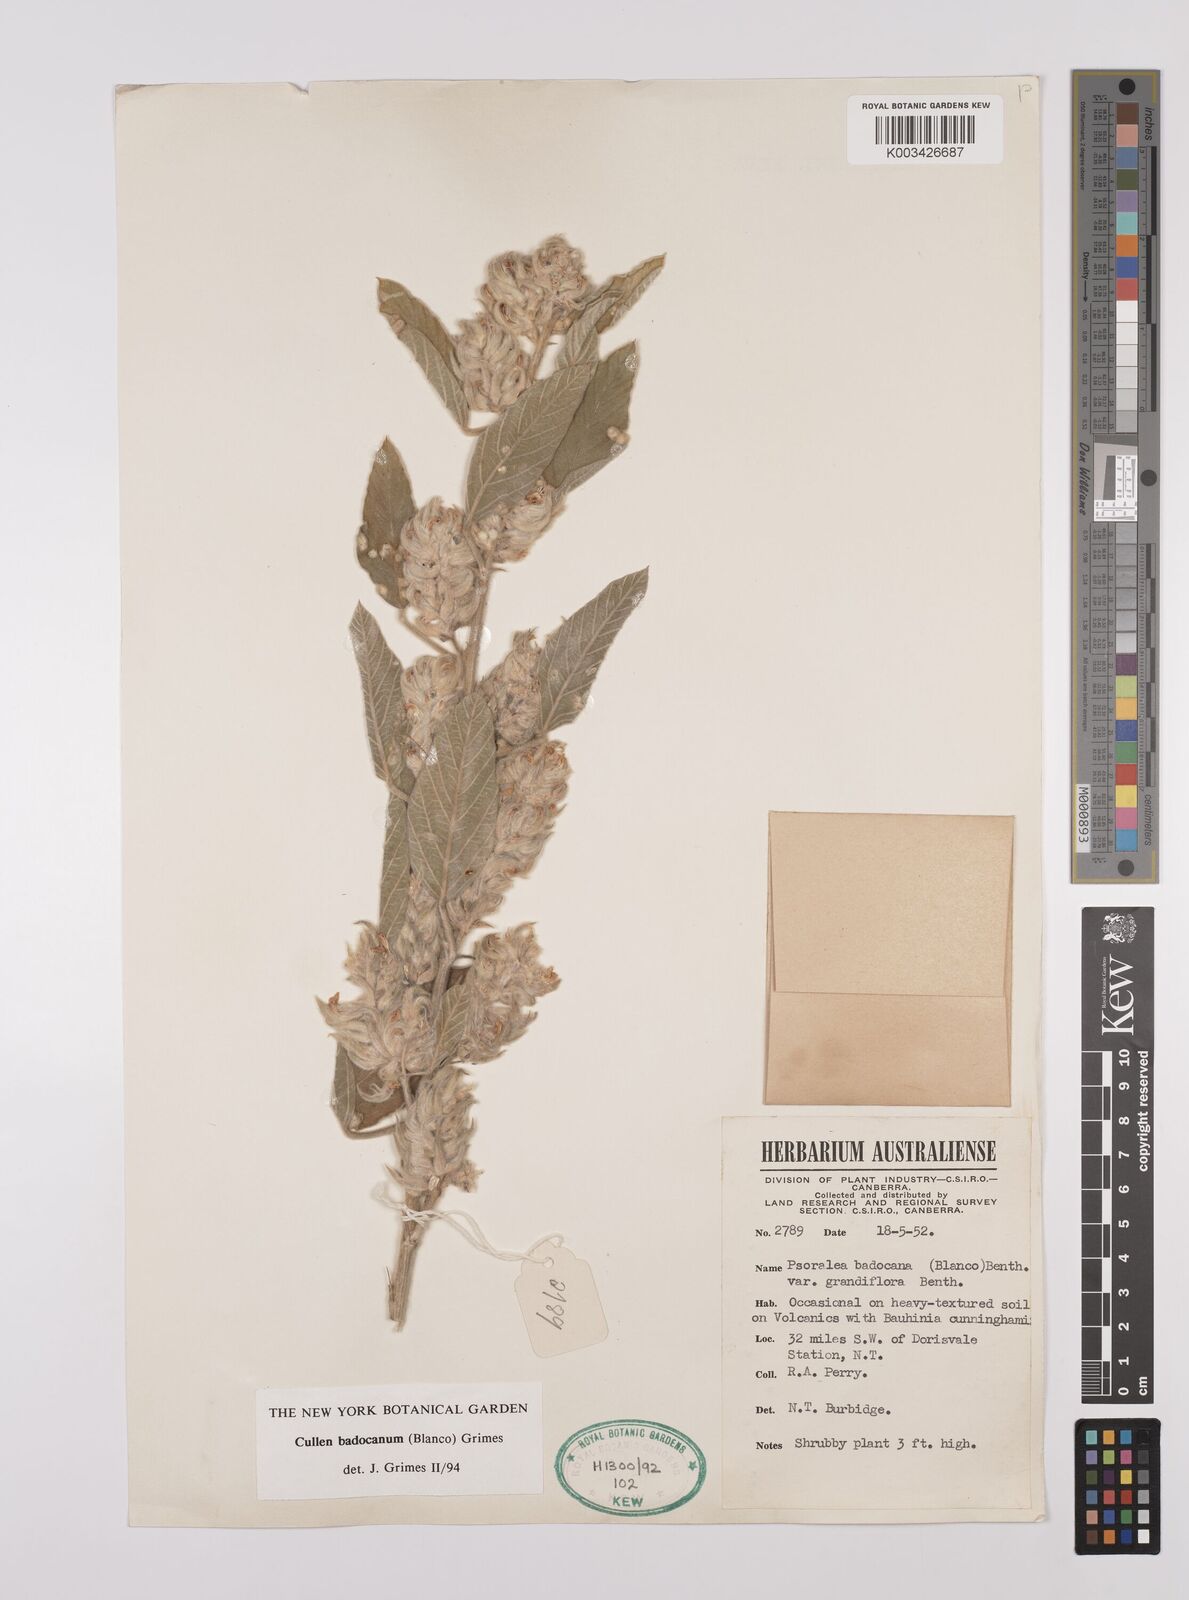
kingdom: Plantae
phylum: Tracheophyta
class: Magnoliopsida
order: Fabales
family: Fabaceae
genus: Cullen
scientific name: Cullen badocanum
